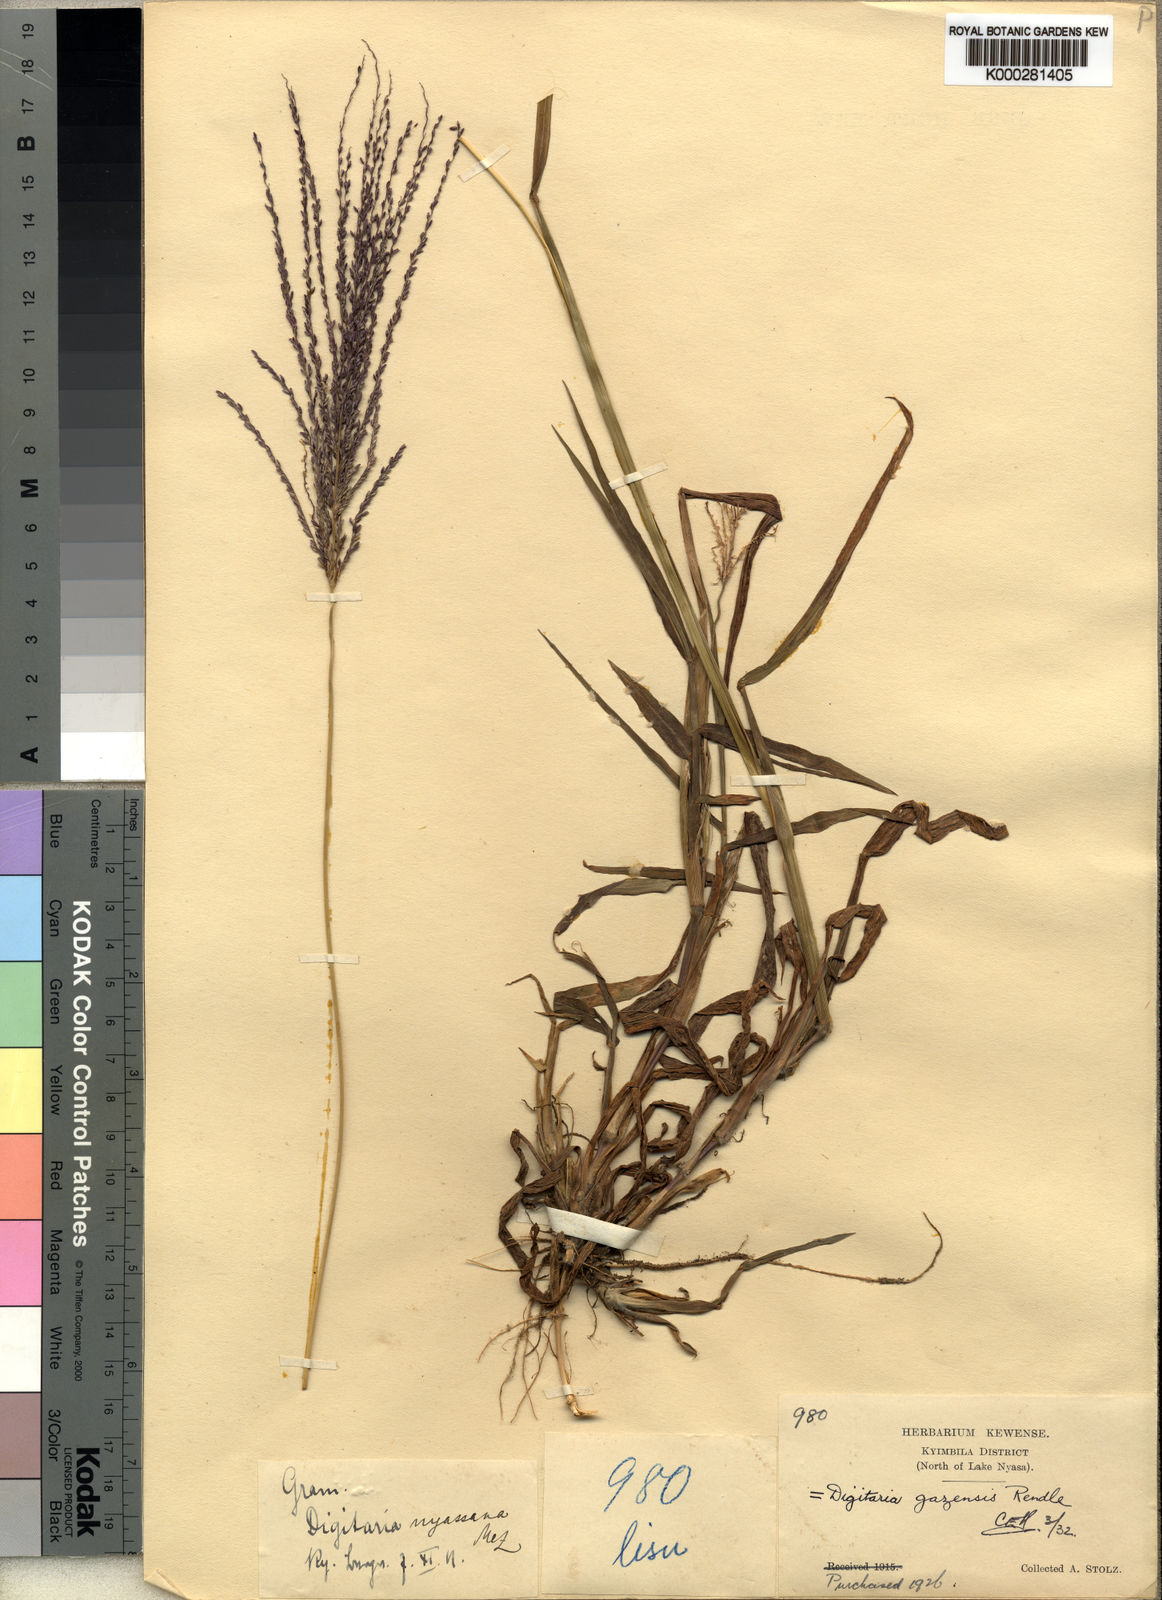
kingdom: Plantae
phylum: Tracheophyta
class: Liliopsida
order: Poales
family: Poaceae
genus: Digitaria
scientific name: Digitaria gazensis
